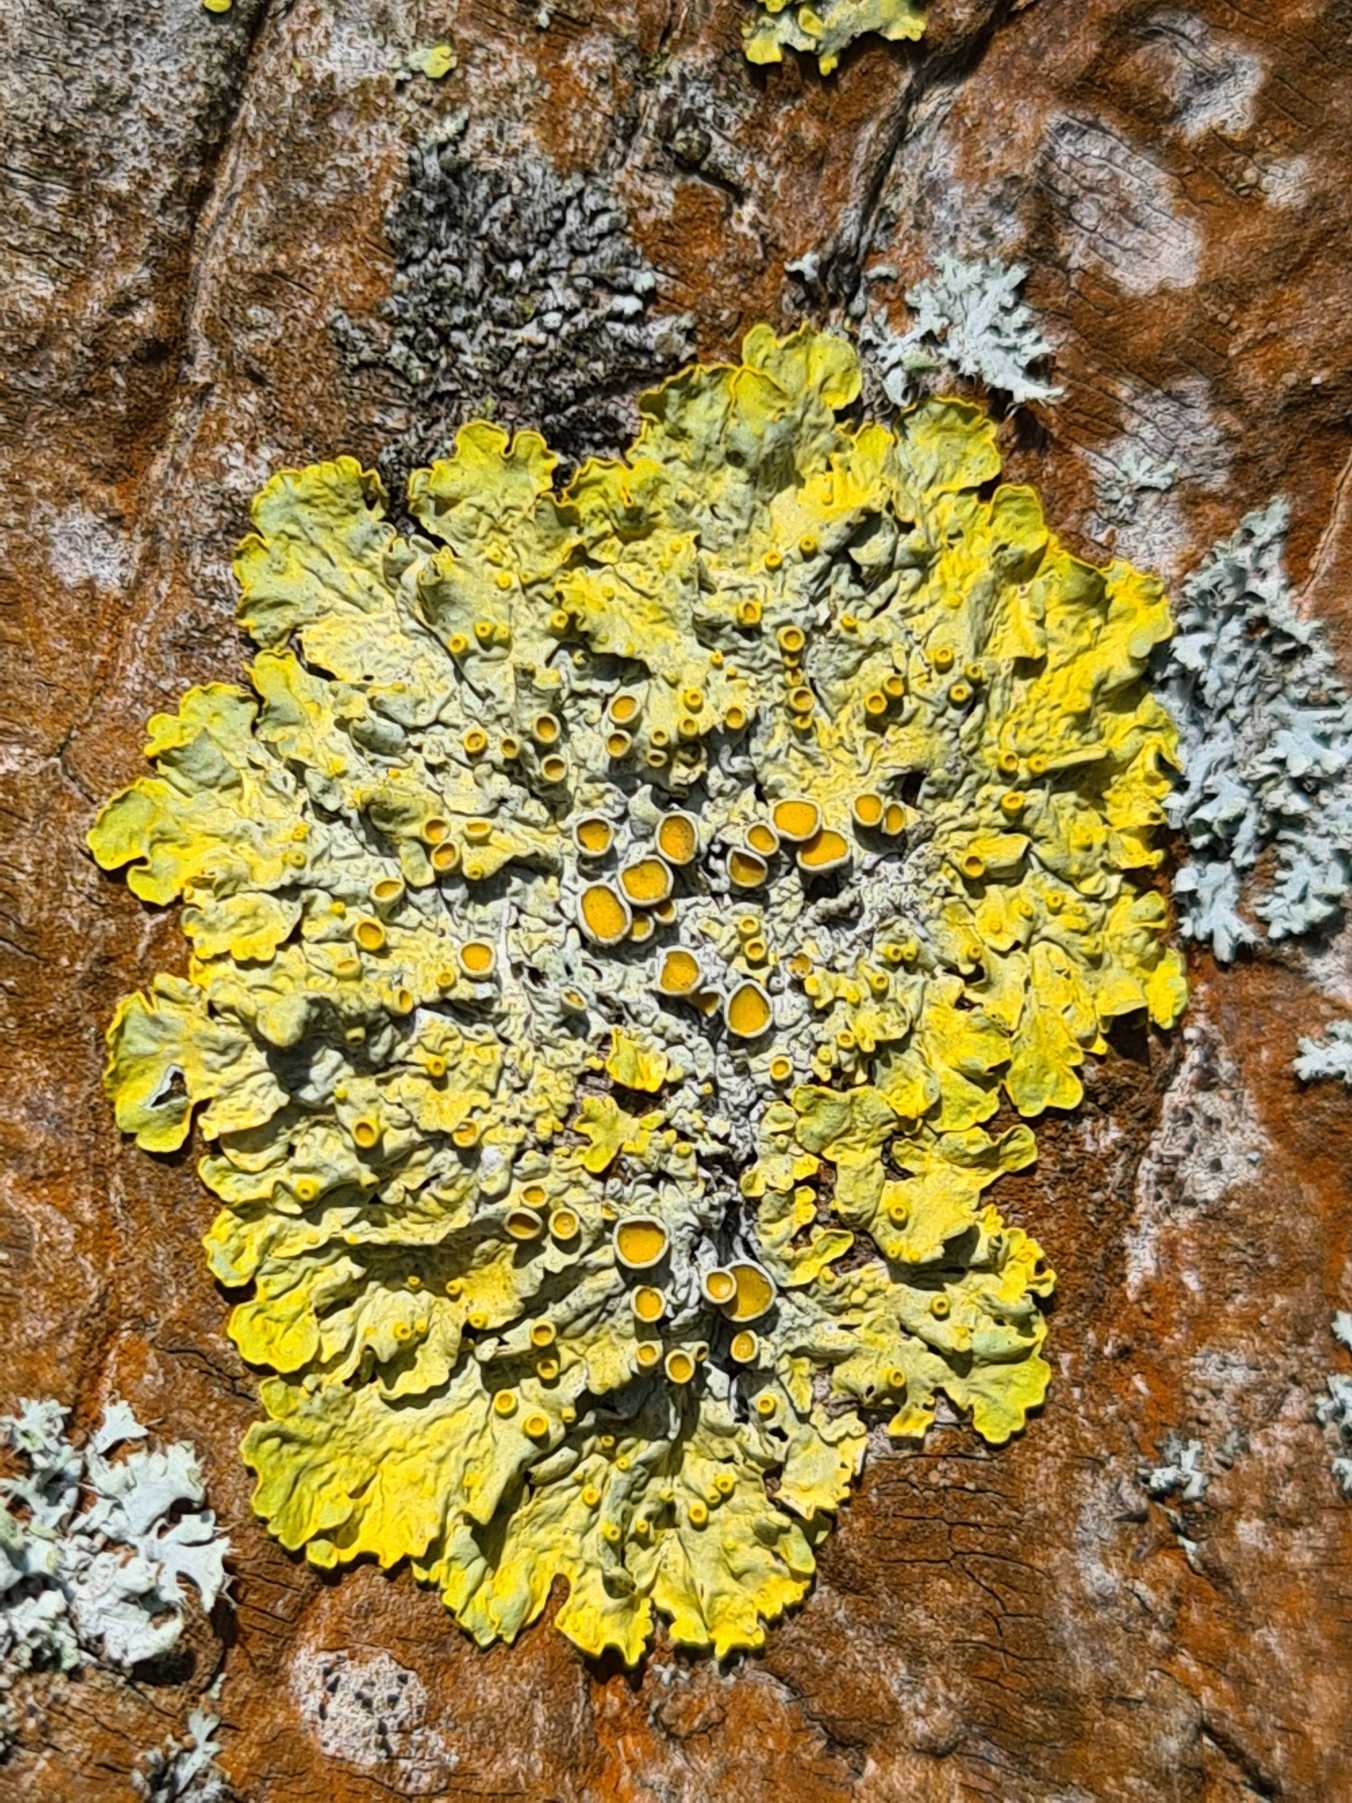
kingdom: Fungi
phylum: Ascomycota
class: Lecanoromycetes
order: Teloschistales
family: Teloschistaceae
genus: Xanthoria
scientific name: Xanthoria parietina
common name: Almindelig væggelav
